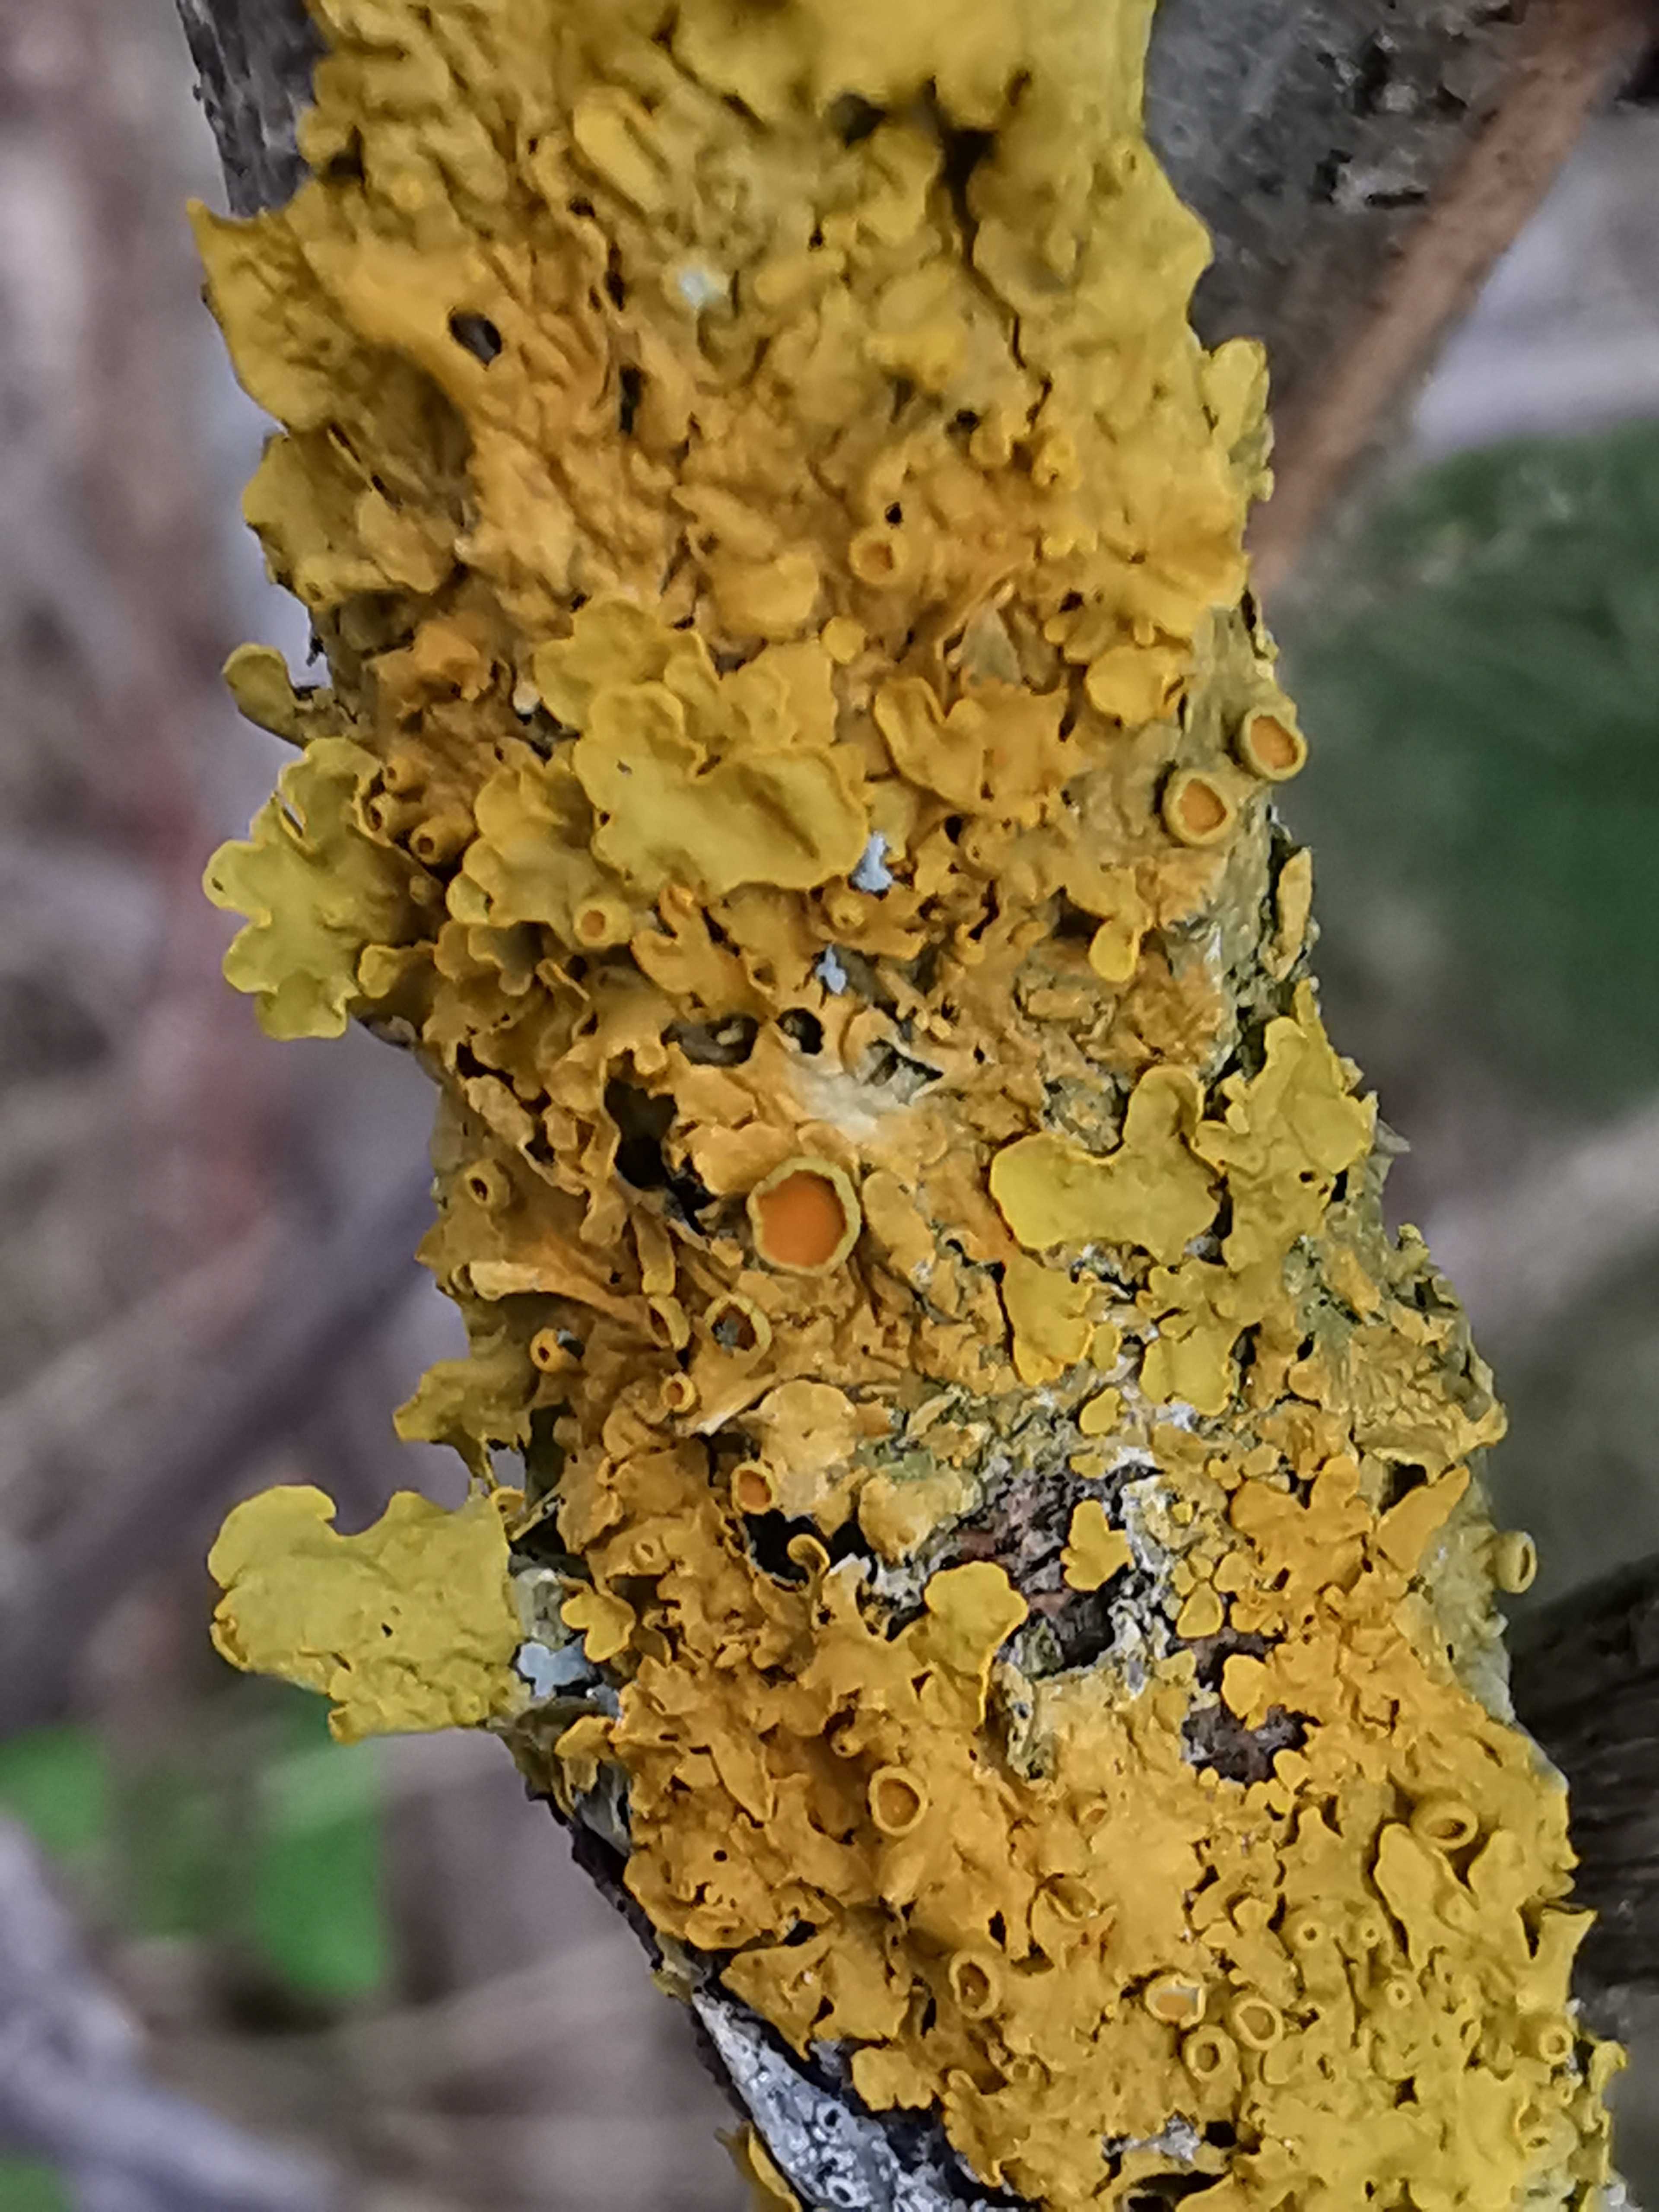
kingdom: Fungi
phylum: Ascomycota
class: Lecanoromycetes
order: Teloschistales
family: Teloschistaceae
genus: Xanthoria
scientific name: Xanthoria parietina
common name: almindelig væggelav
